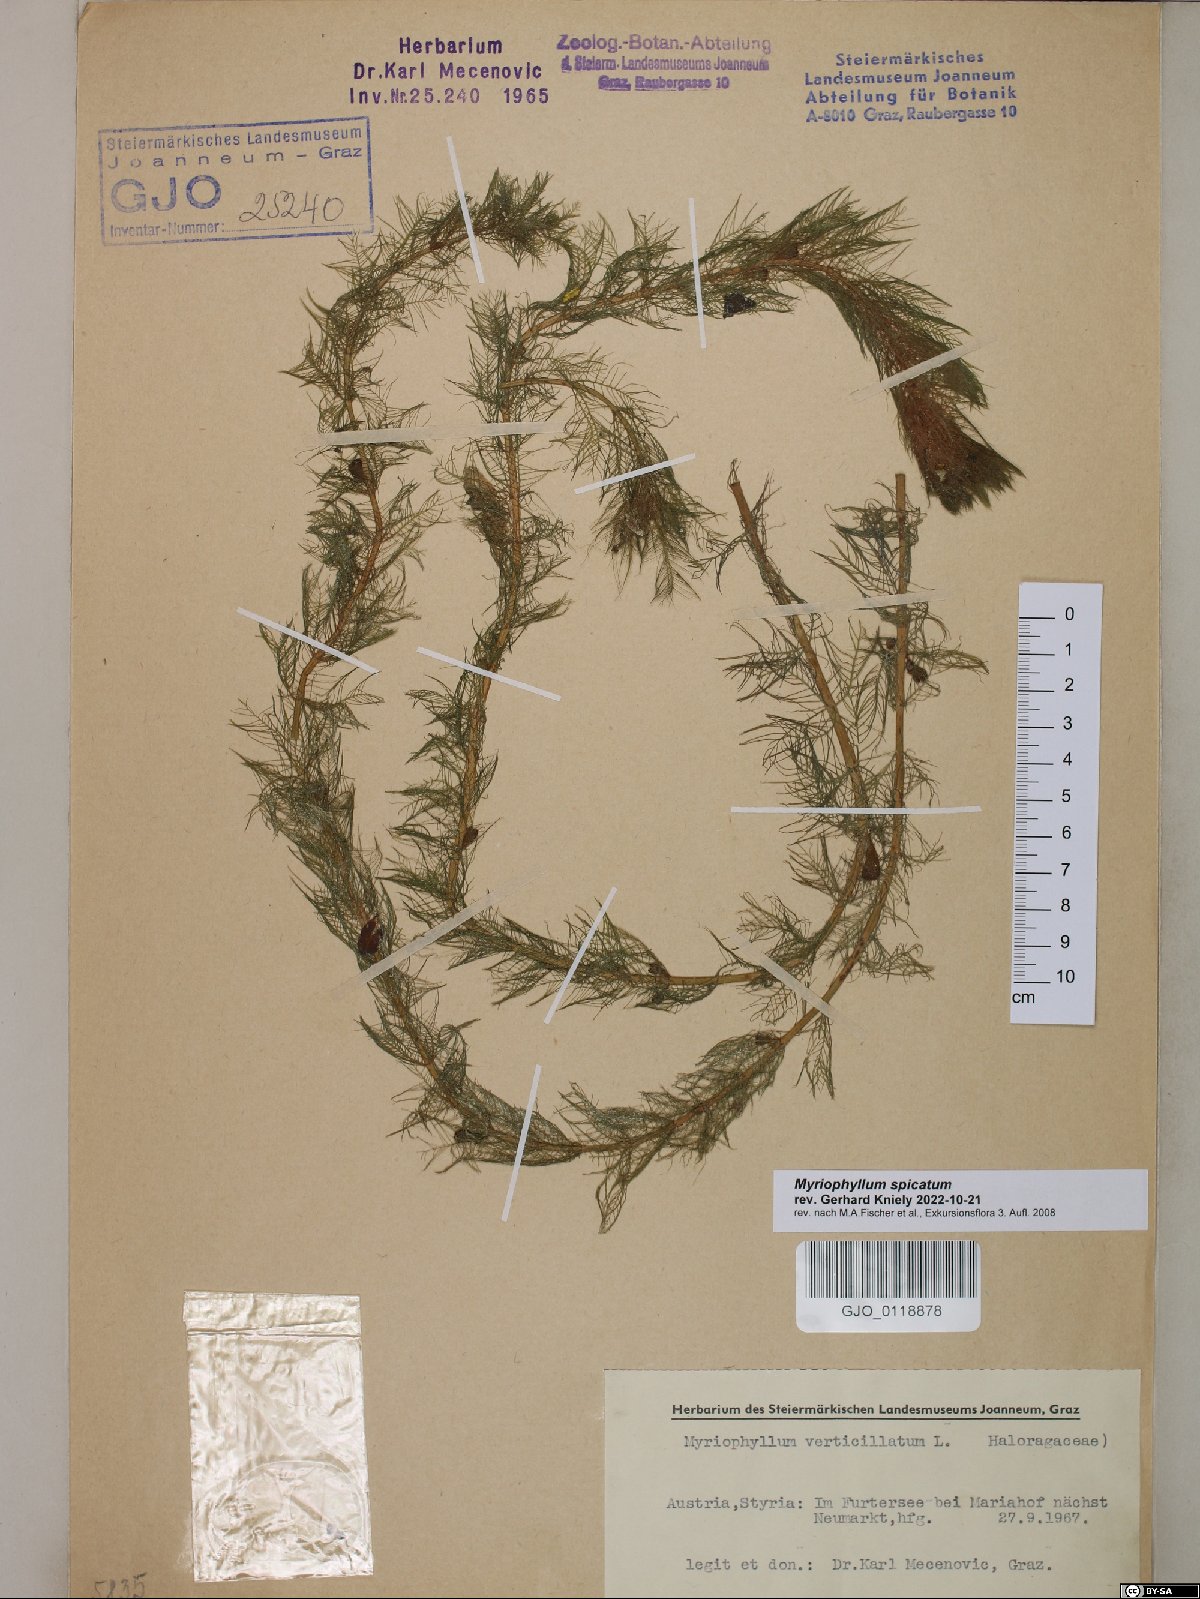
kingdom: Plantae
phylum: Tracheophyta
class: Magnoliopsida
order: Saxifragales
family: Haloragaceae
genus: Myriophyllum
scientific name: Myriophyllum spicatum
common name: Spiked water-milfoil
